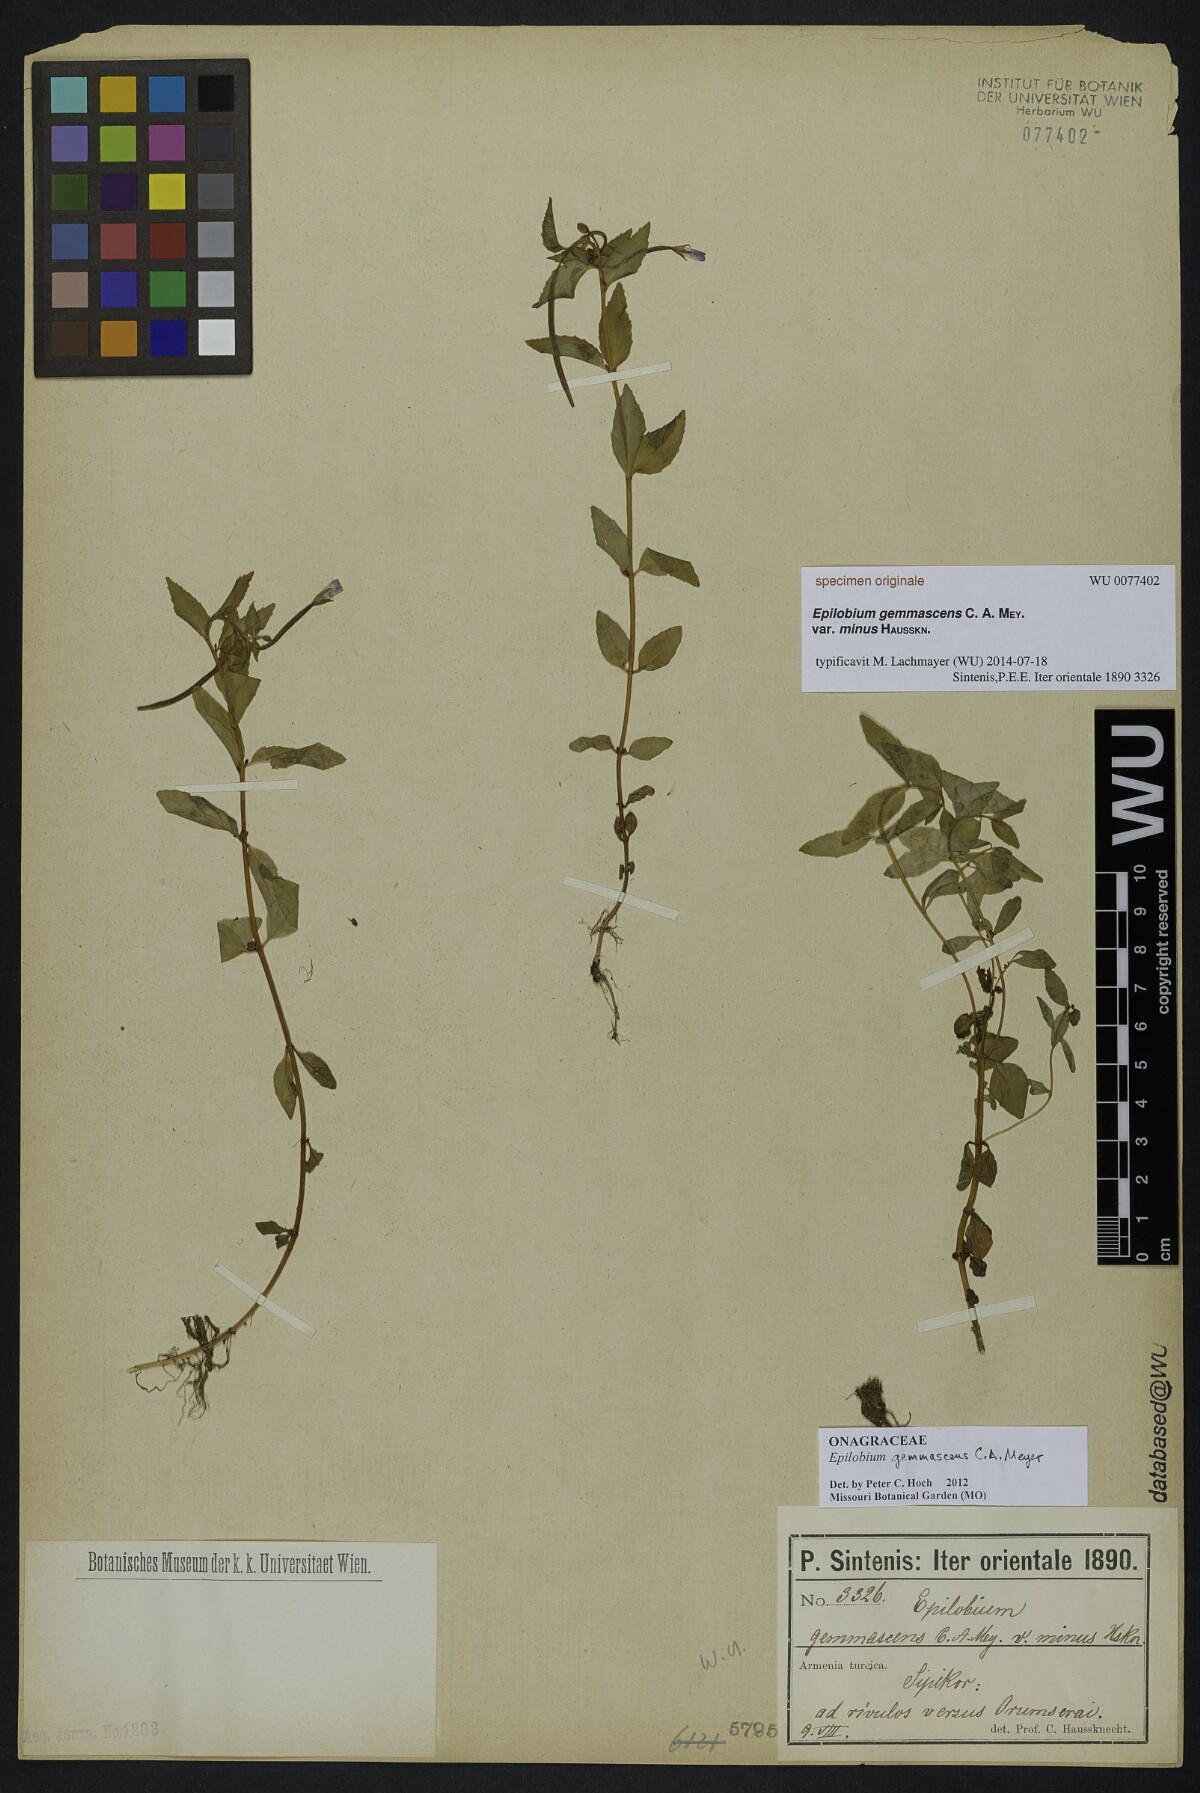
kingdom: Plantae
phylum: Tracheophyta
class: Magnoliopsida
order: Myrtales
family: Onagraceae
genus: Epilobium
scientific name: Epilobium gemmascens
